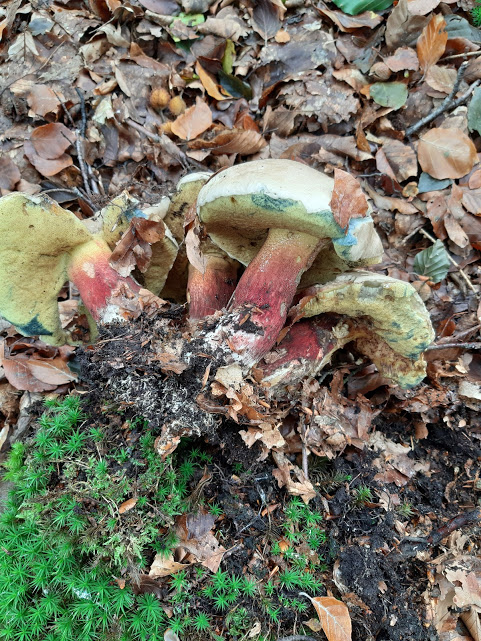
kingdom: Fungi
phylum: Basidiomycota
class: Agaricomycetes
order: Boletales
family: Boletaceae
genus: Caloboletus
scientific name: Caloboletus calopus
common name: skønfodet rørhat
